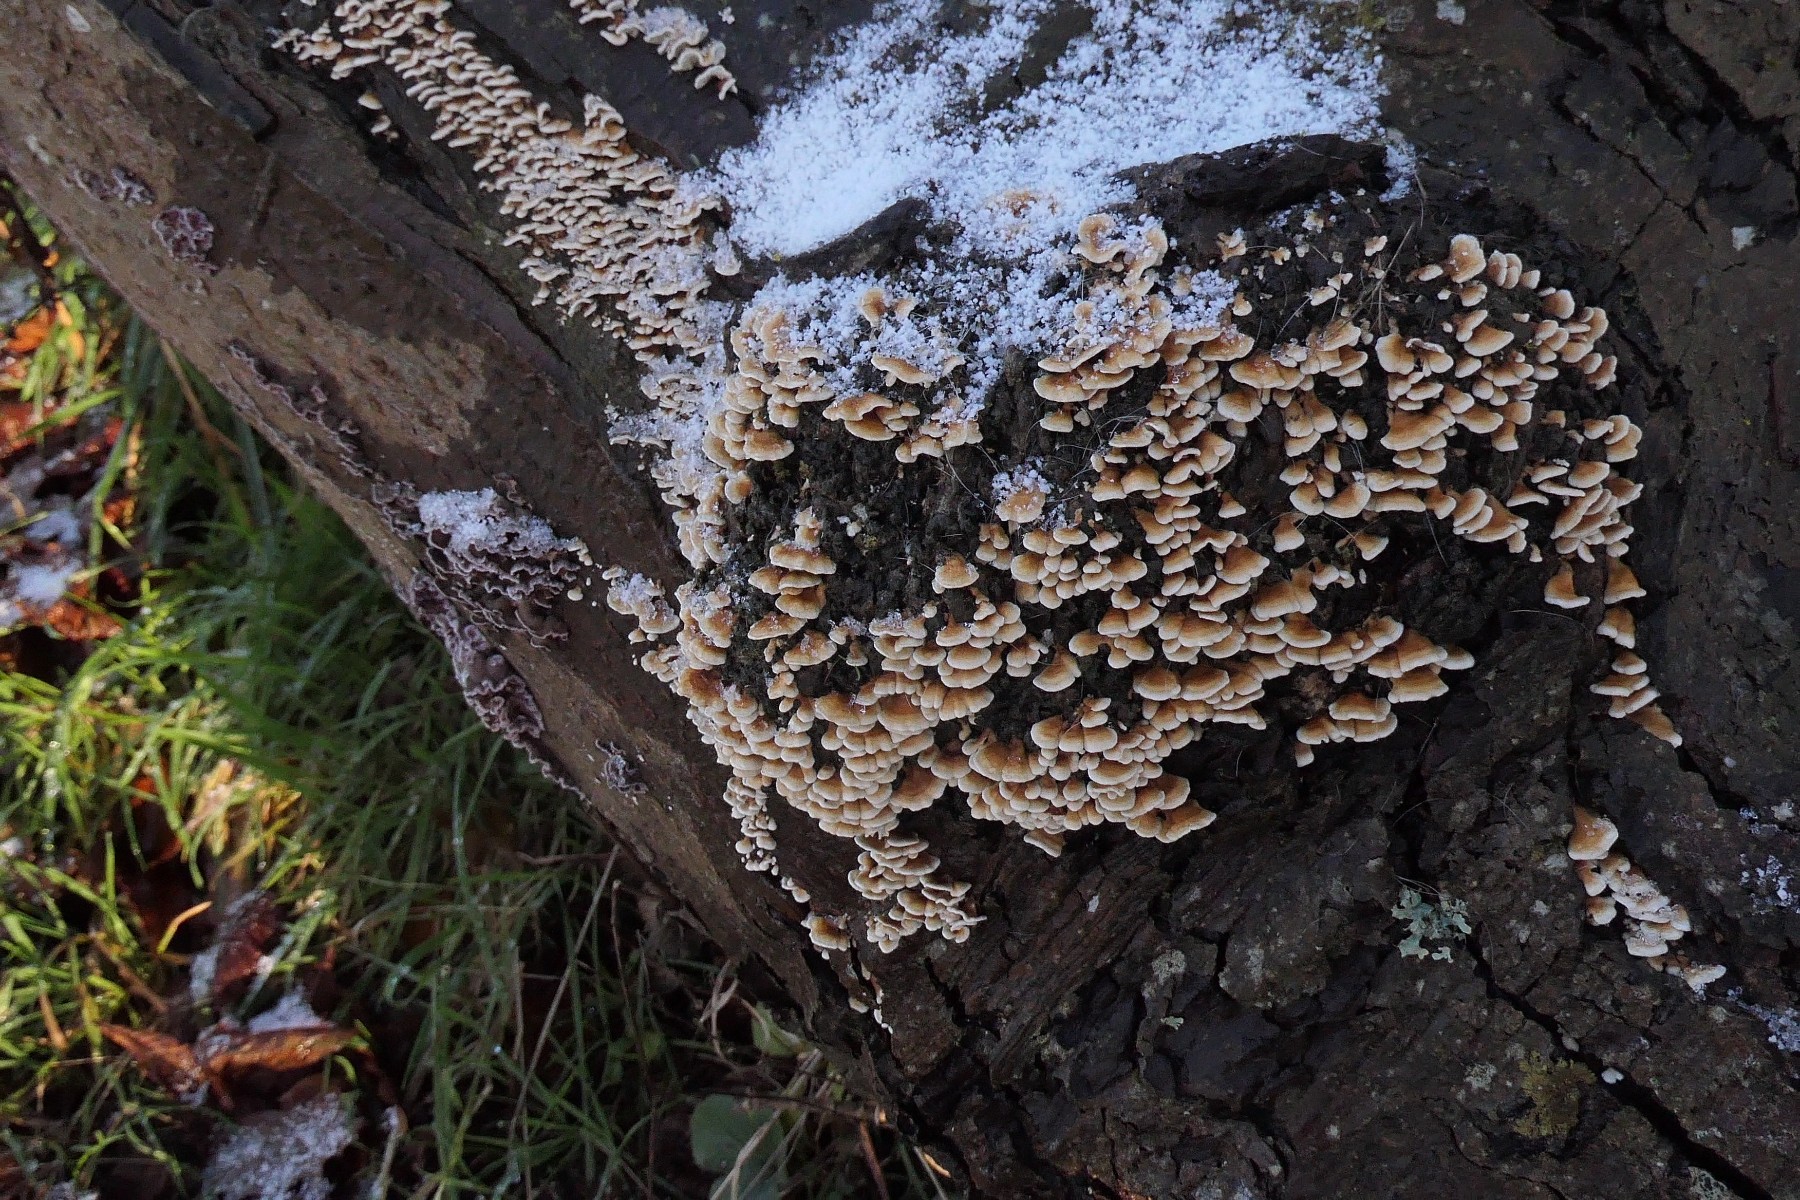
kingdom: Fungi
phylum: Basidiomycota
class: Agaricomycetes
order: Amylocorticiales
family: Amylocorticiaceae
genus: Plicaturopsis
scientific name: Plicaturopsis crispa
